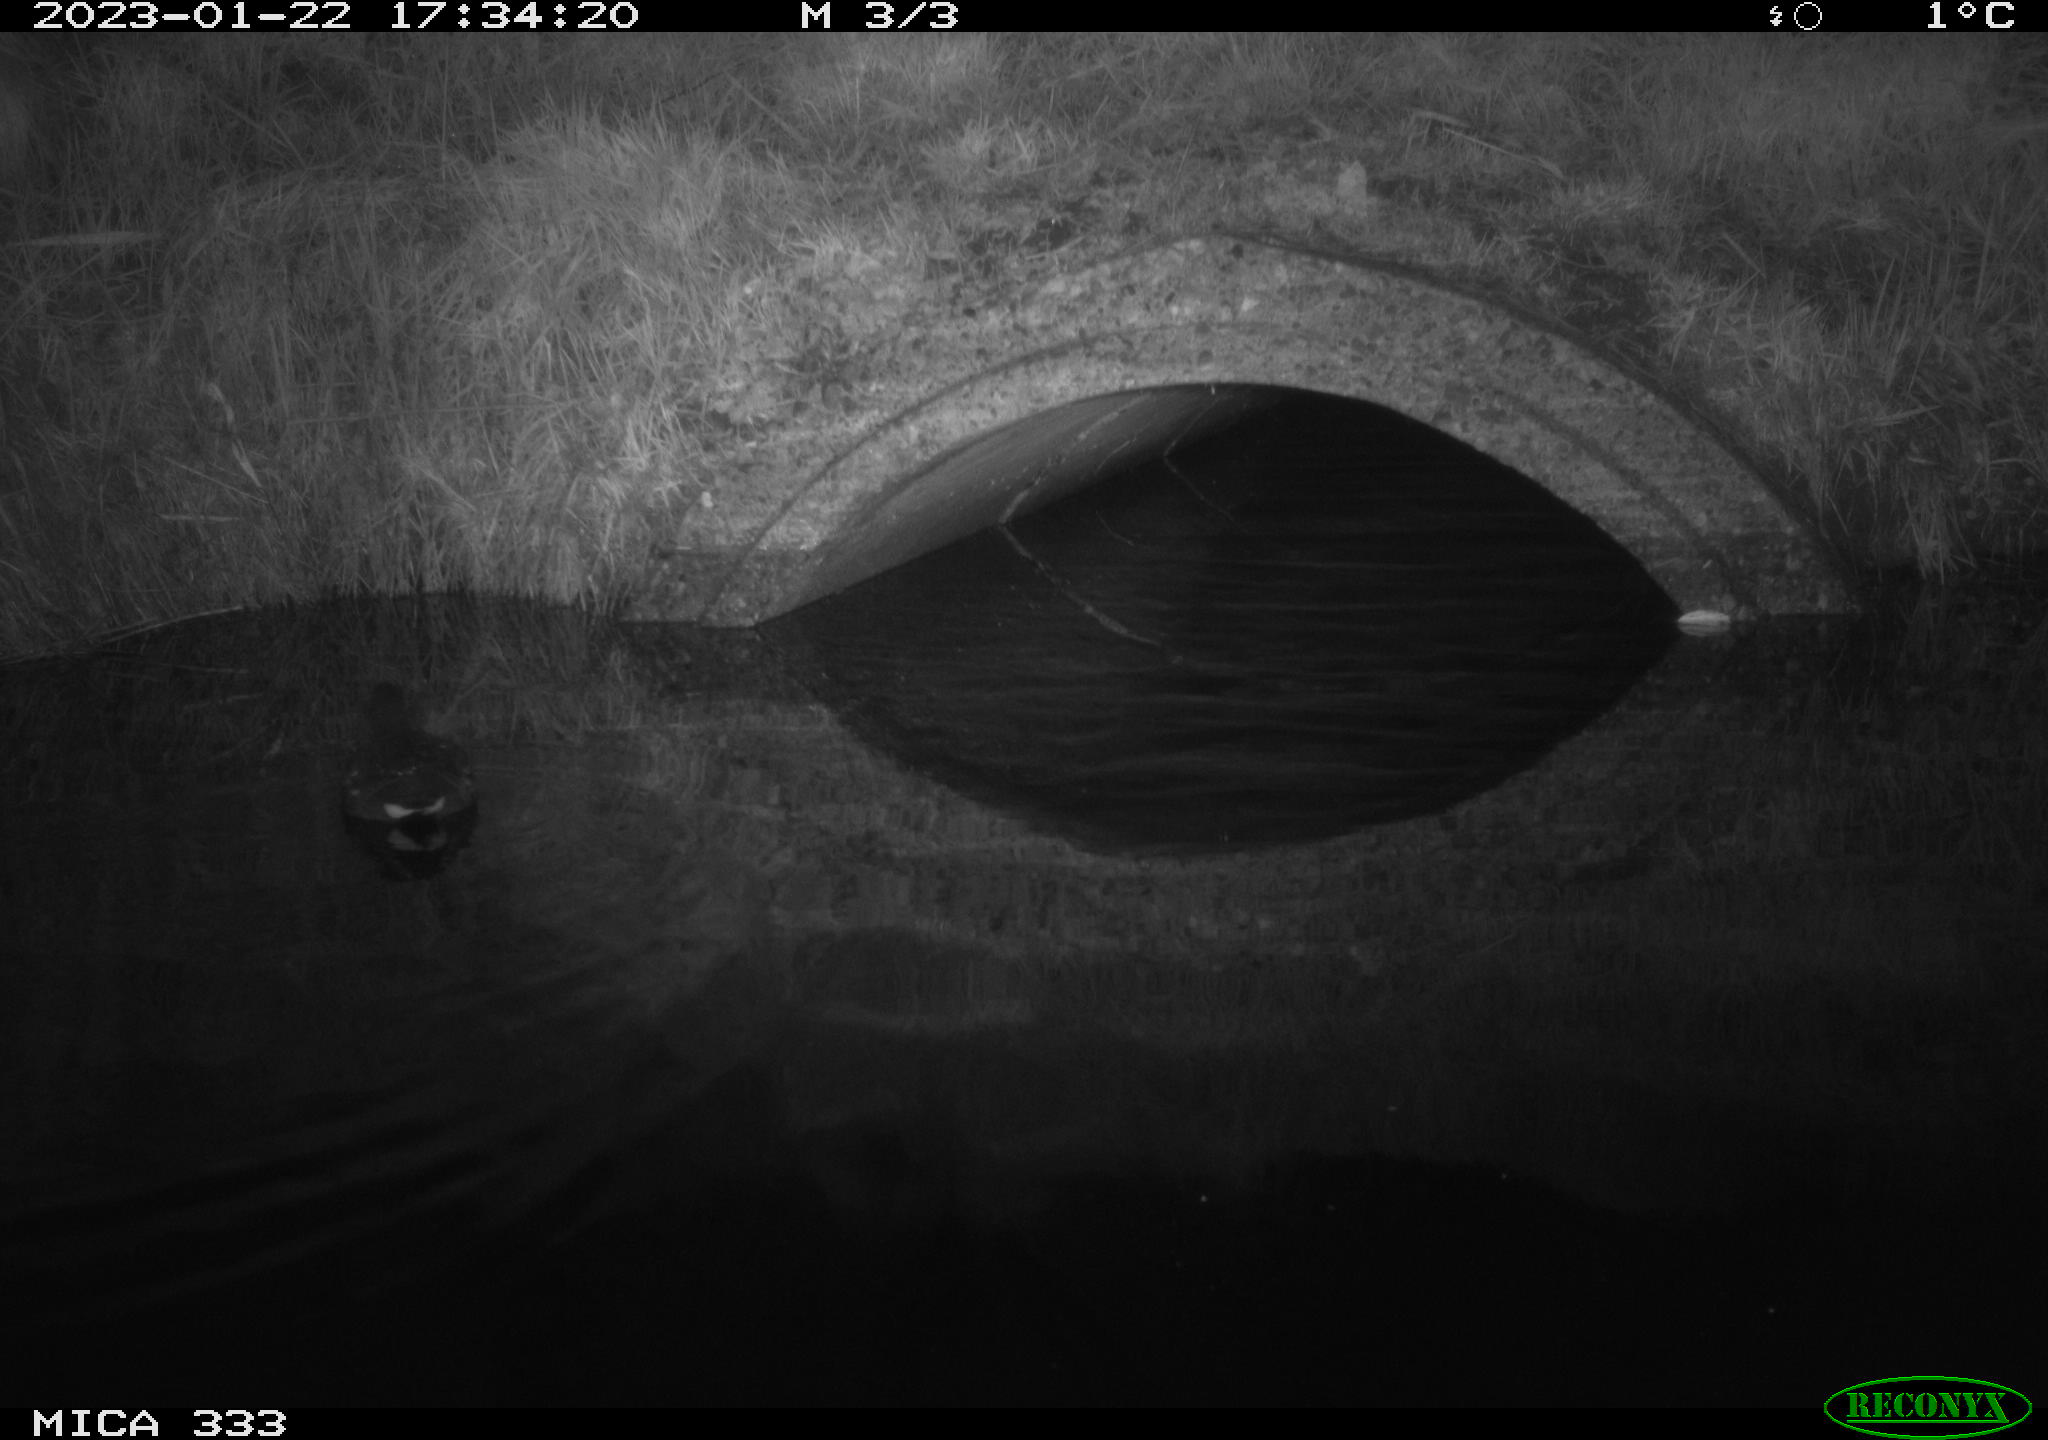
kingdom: Animalia
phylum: Chordata
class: Aves
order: Gruiformes
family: Rallidae
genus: Gallinula
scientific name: Gallinula chloropus
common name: Common moorhen
